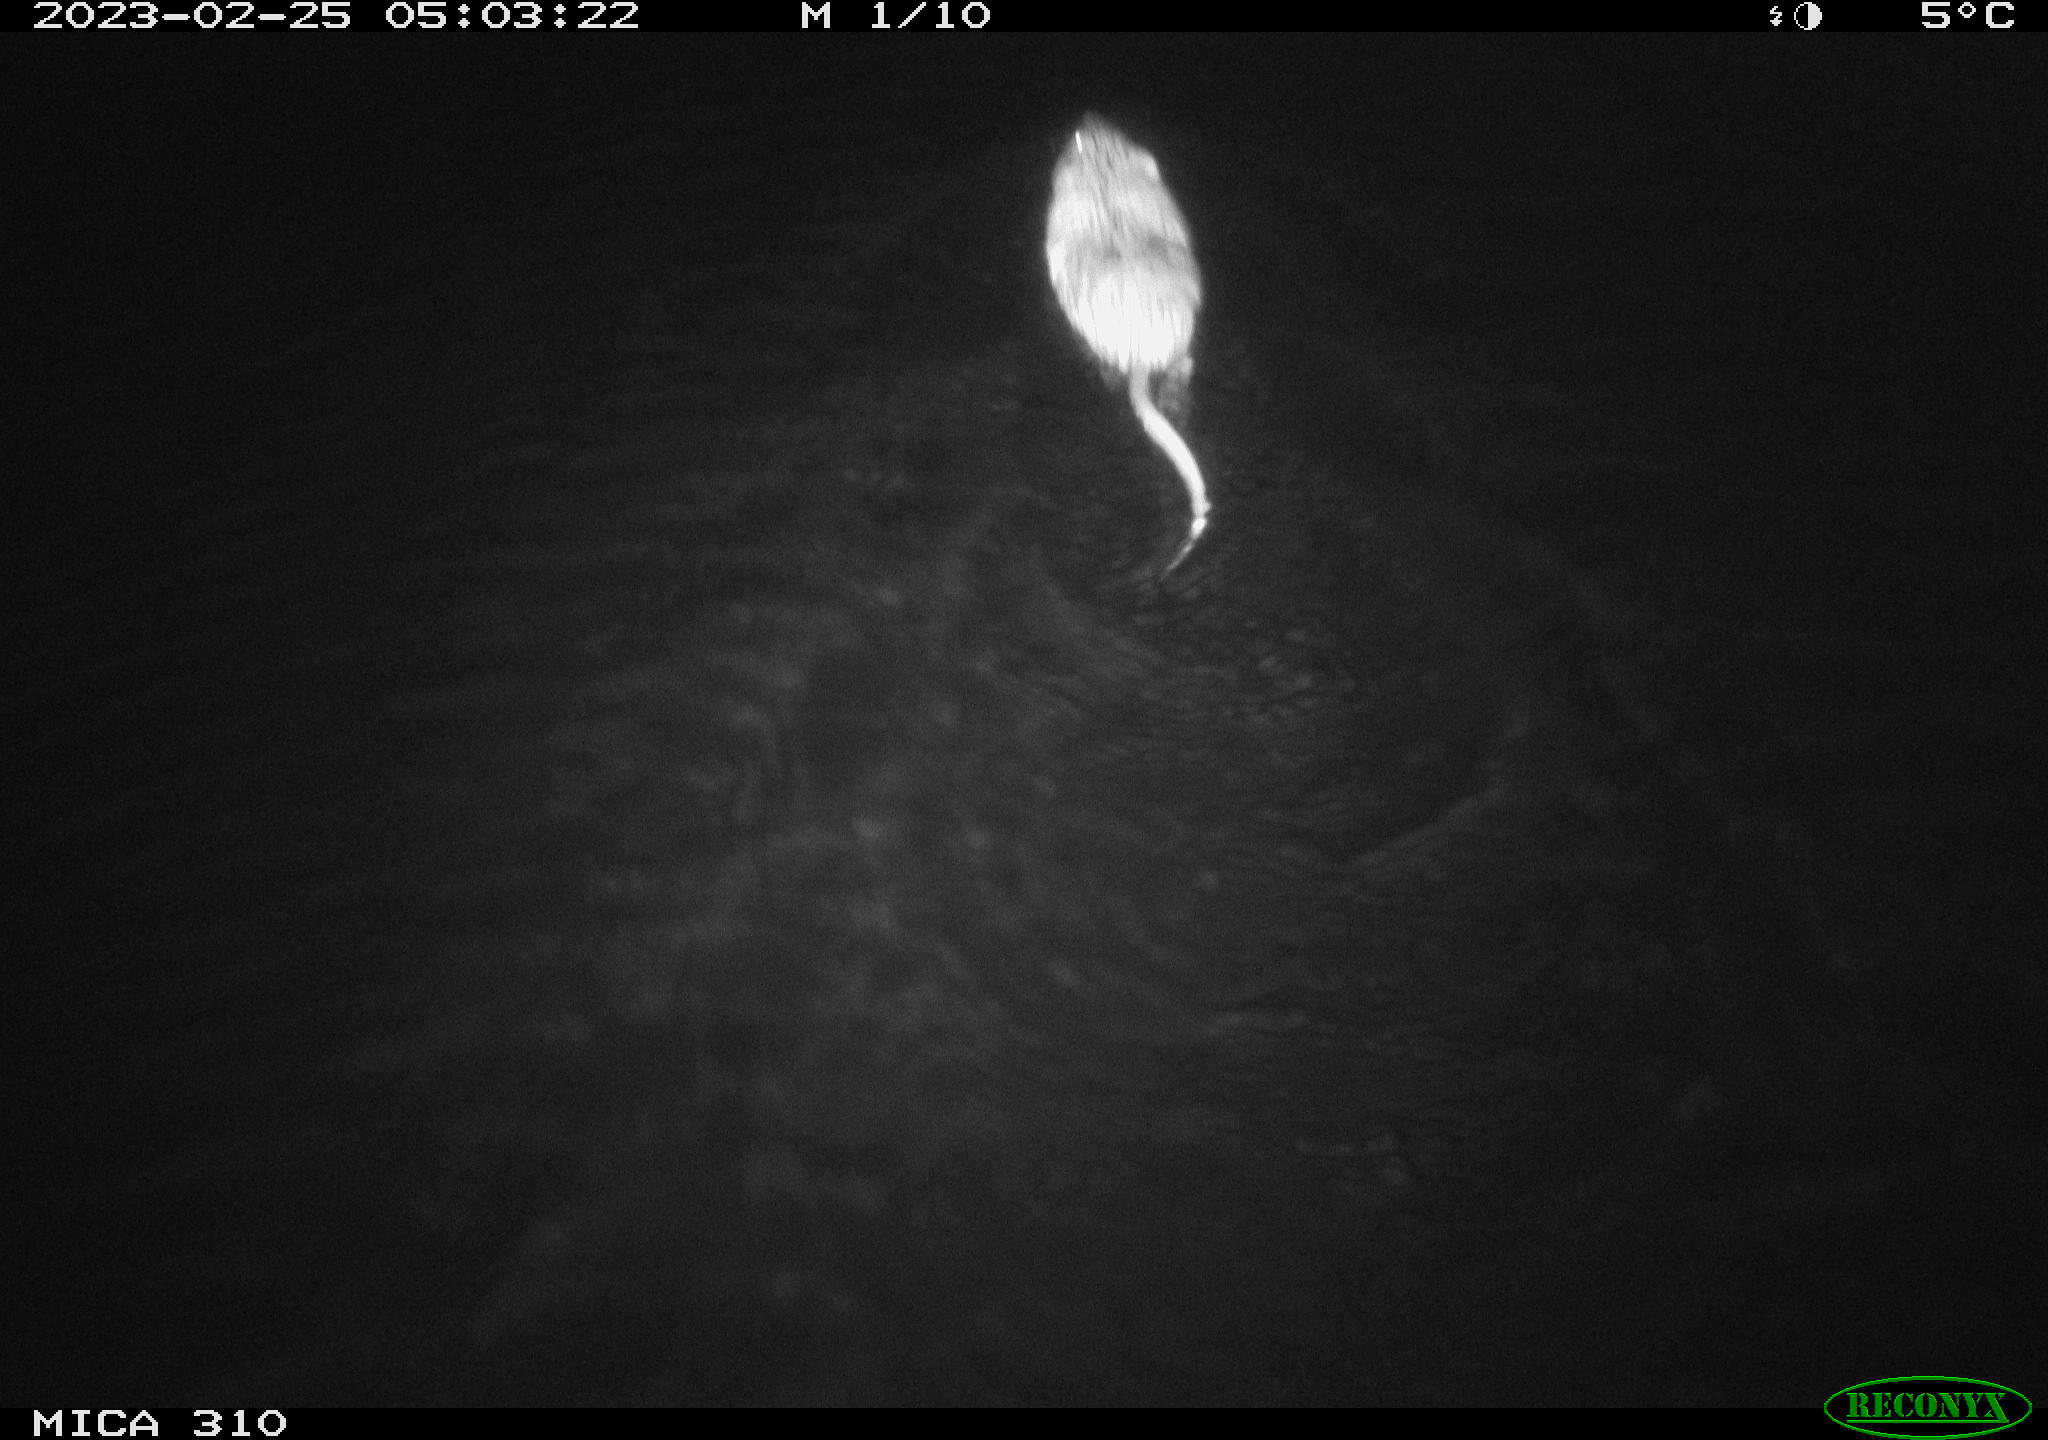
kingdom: Animalia
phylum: Chordata
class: Mammalia
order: Rodentia
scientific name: Rodentia
